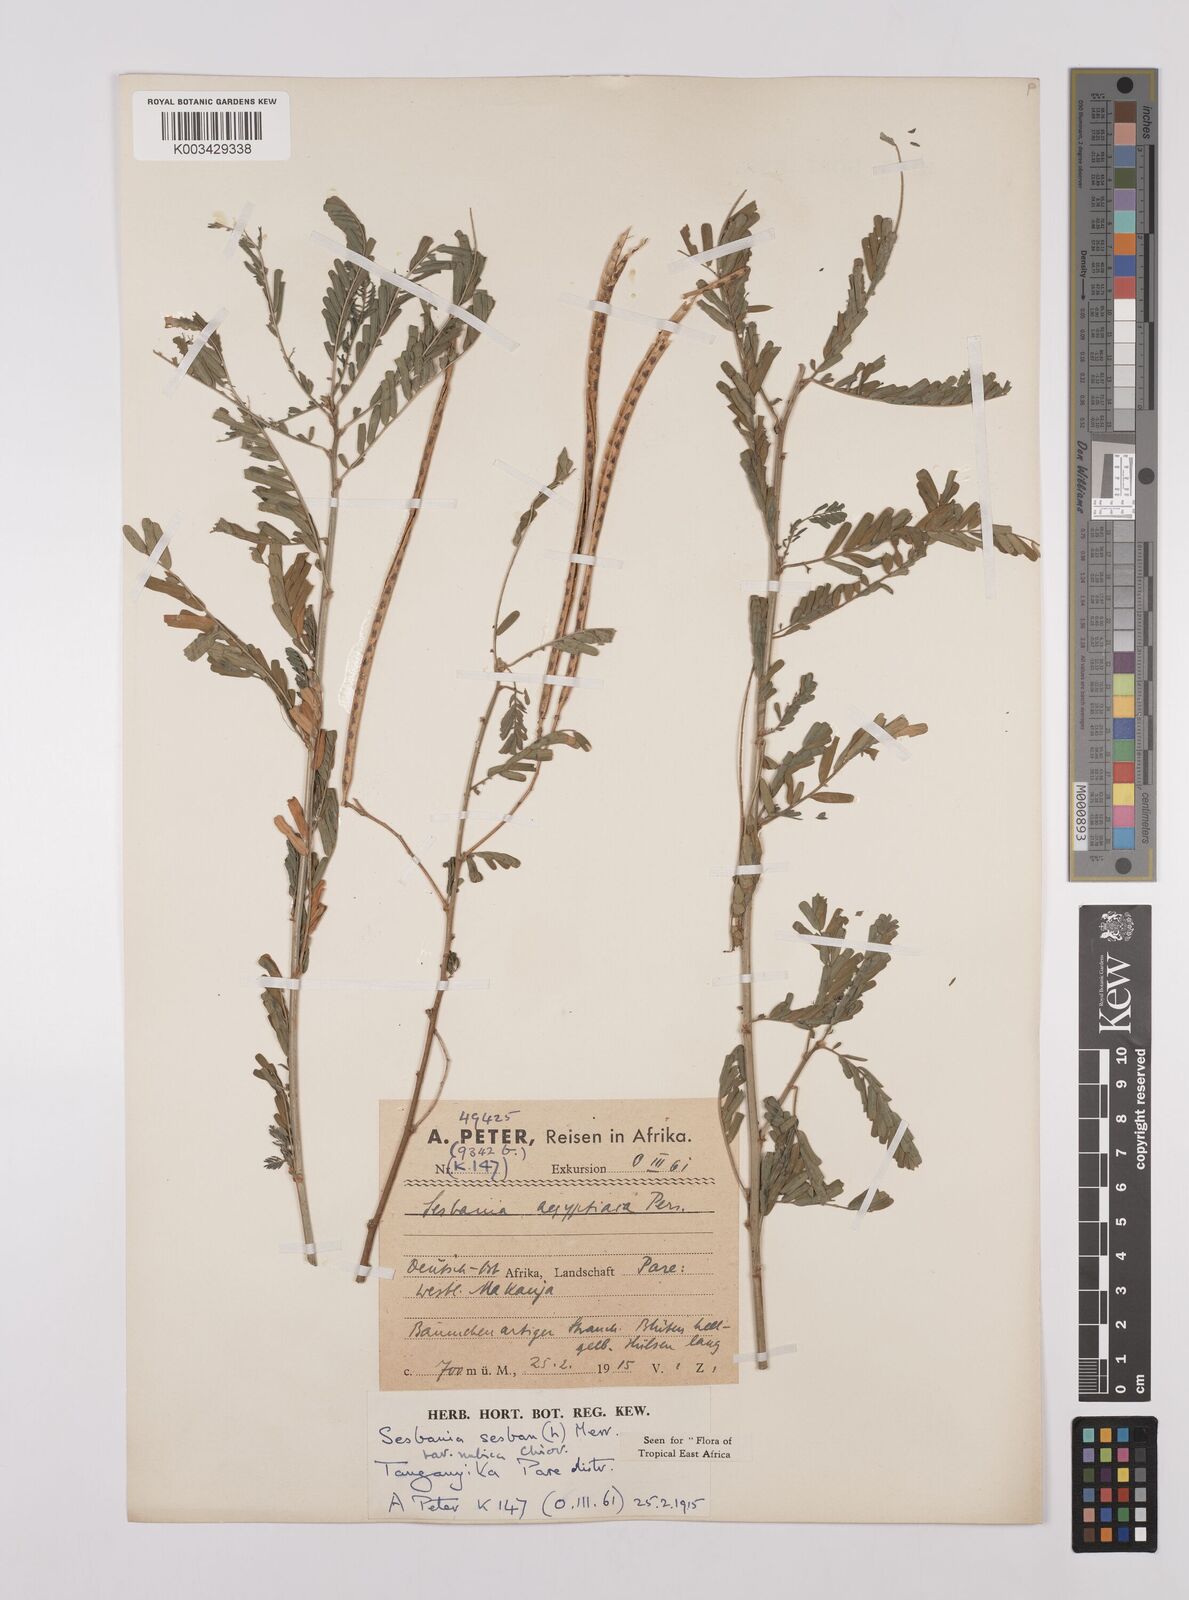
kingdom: Plantae
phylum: Tracheophyta
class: Magnoliopsida
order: Fabales
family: Fabaceae
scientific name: Fabaceae
